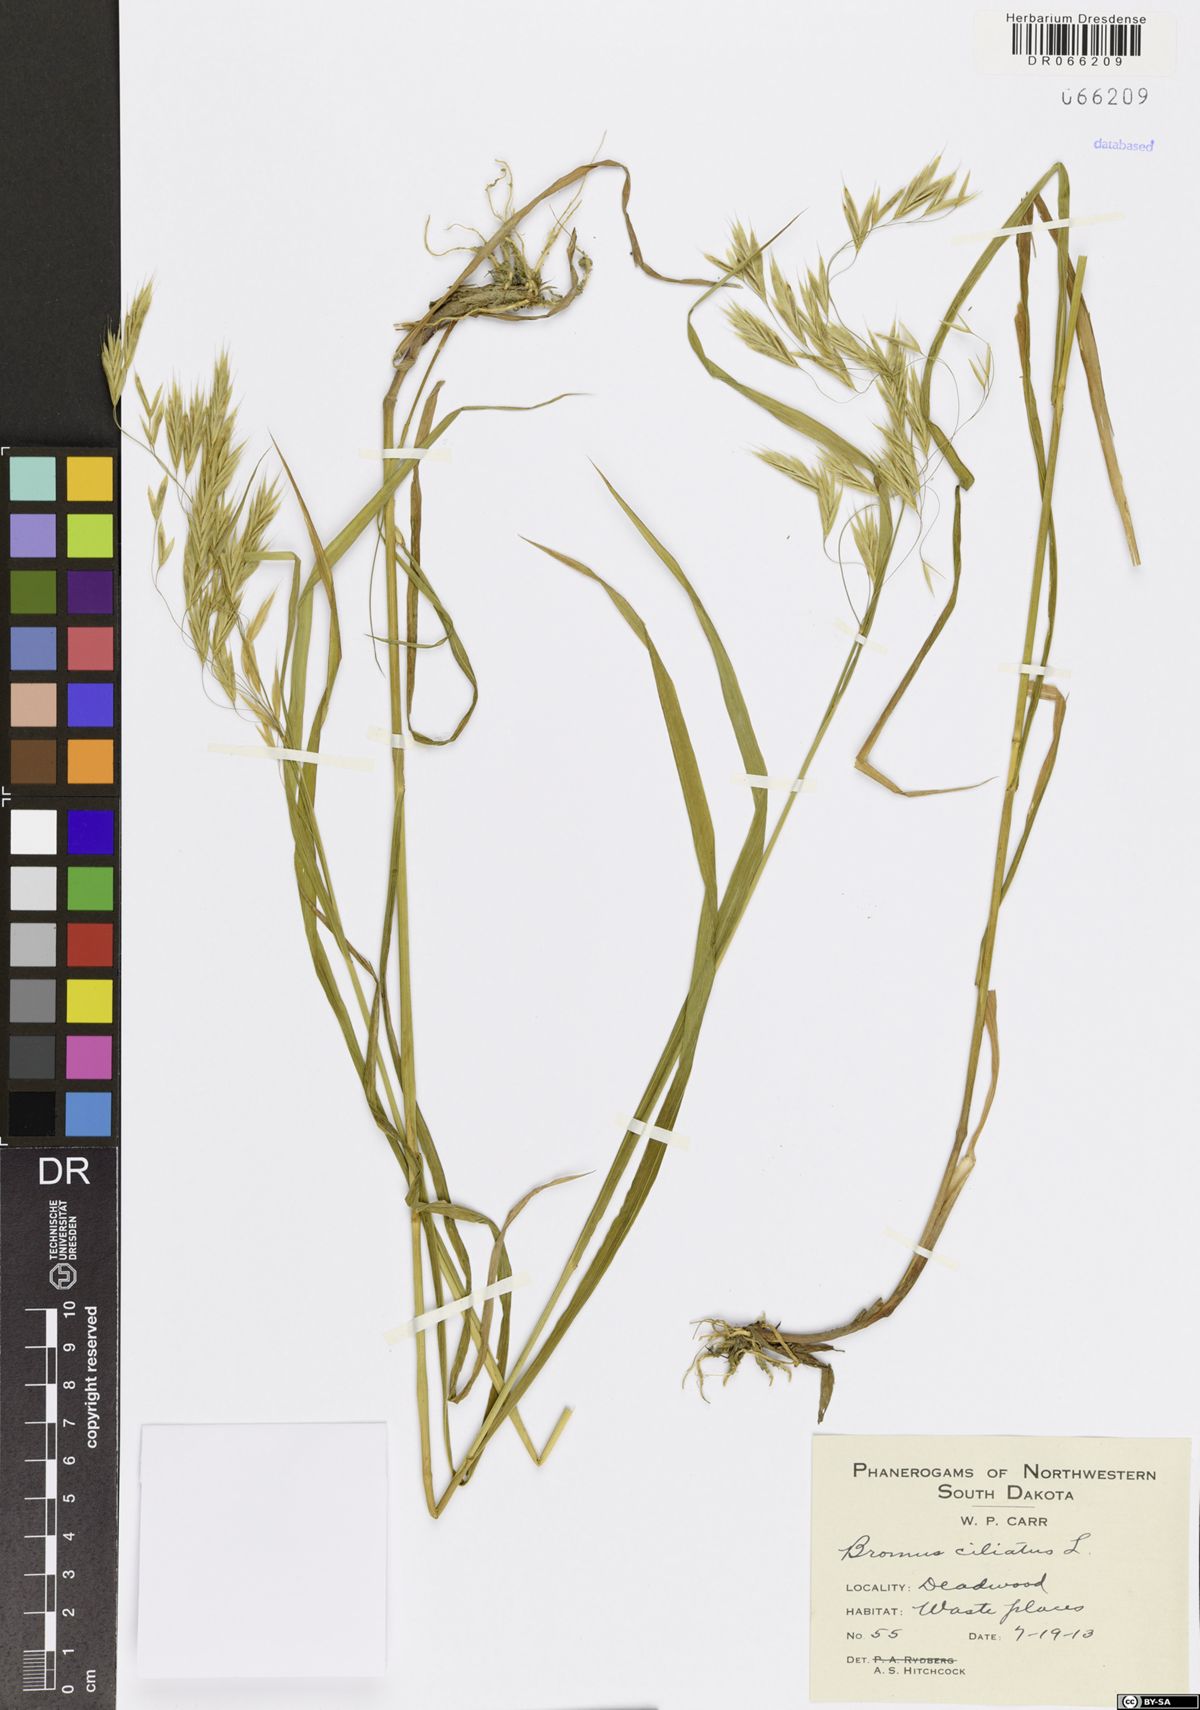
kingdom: Plantae
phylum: Tracheophyta
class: Liliopsida
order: Poales
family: Poaceae
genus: Bromus
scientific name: Bromus ciliatus
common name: Fringe brome
